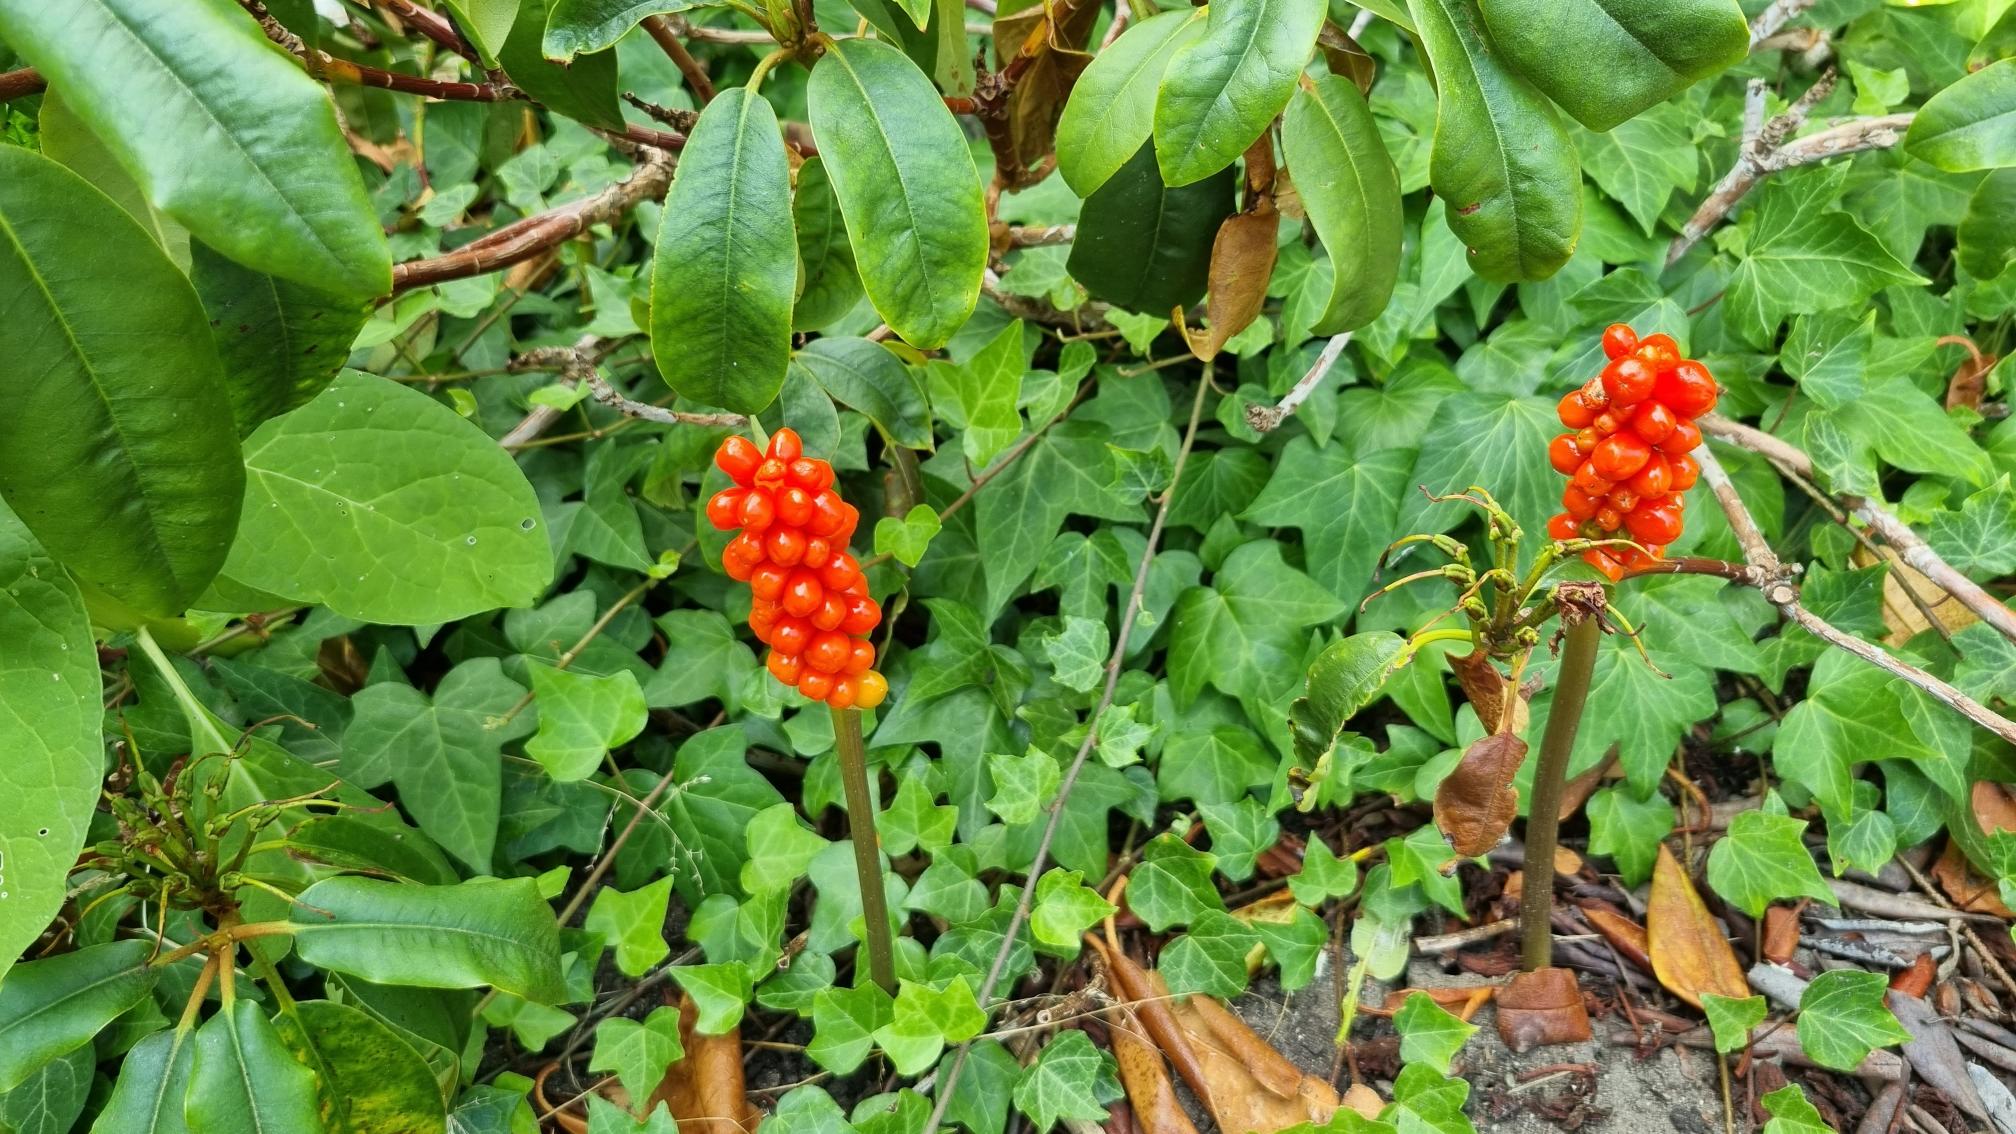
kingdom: Plantae
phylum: Tracheophyta
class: Liliopsida
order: Alismatales
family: Araceae
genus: Arum
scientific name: Arum
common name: Arumslægten
